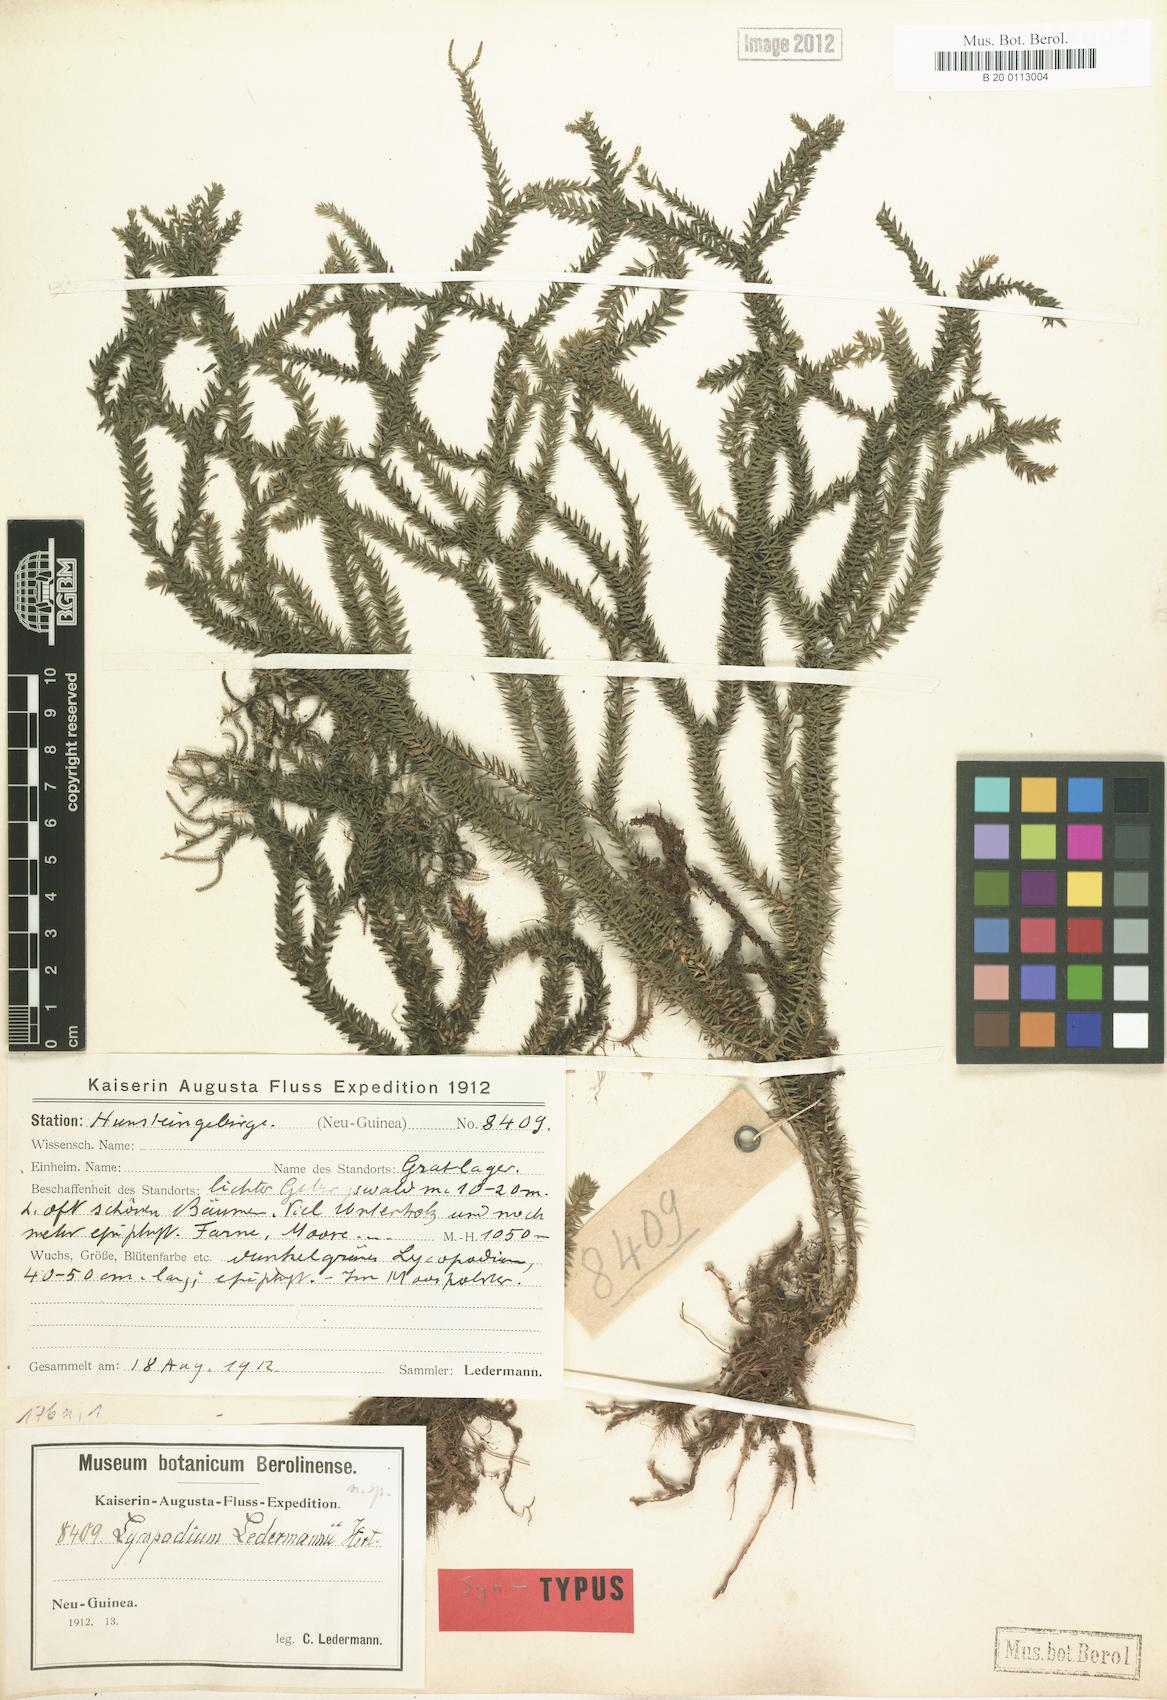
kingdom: Plantae
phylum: Tracheophyta
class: Lycopodiopsida
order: Lycopodiales
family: Lycopodiaceae
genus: Phlegmariurus
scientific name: Phlegmariurus ledermannii
